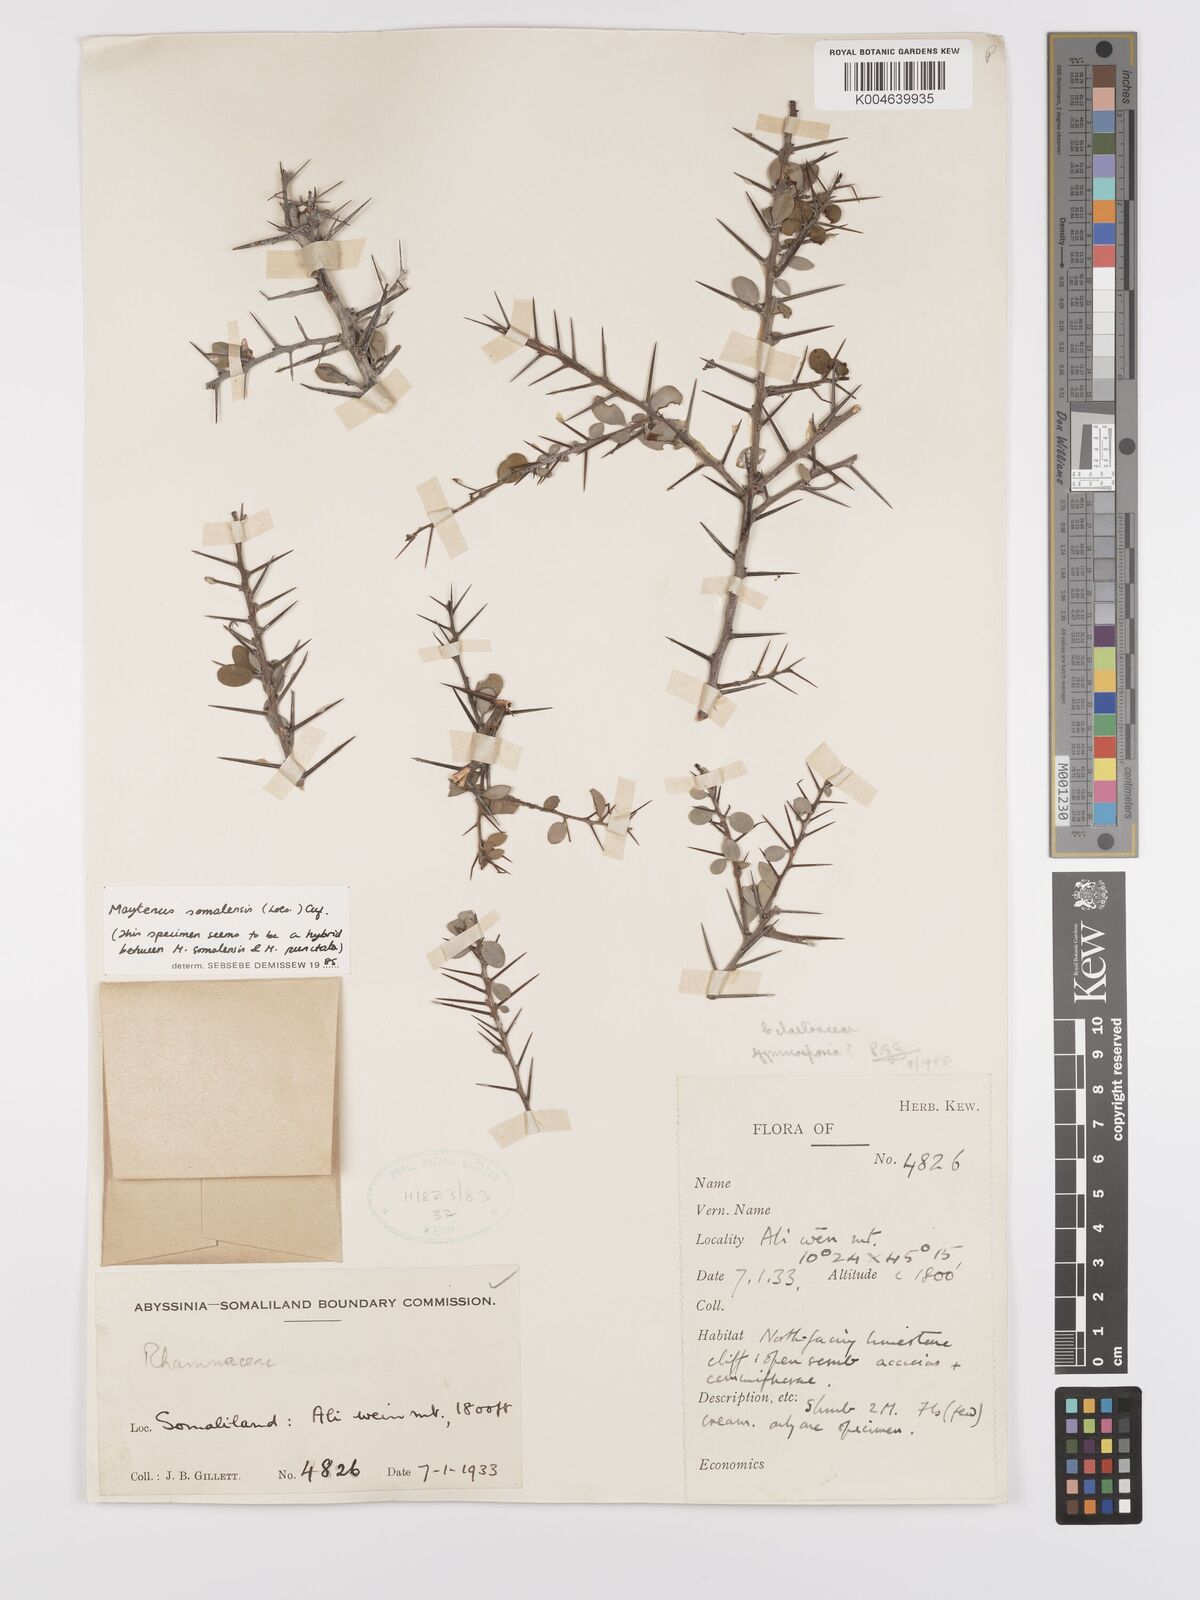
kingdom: Plantae
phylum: Tracheophyta
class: Magnoliopsida
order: Celastrales
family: Celastraceae
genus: Gymnosporia
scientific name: Gymnosporia somalensis
